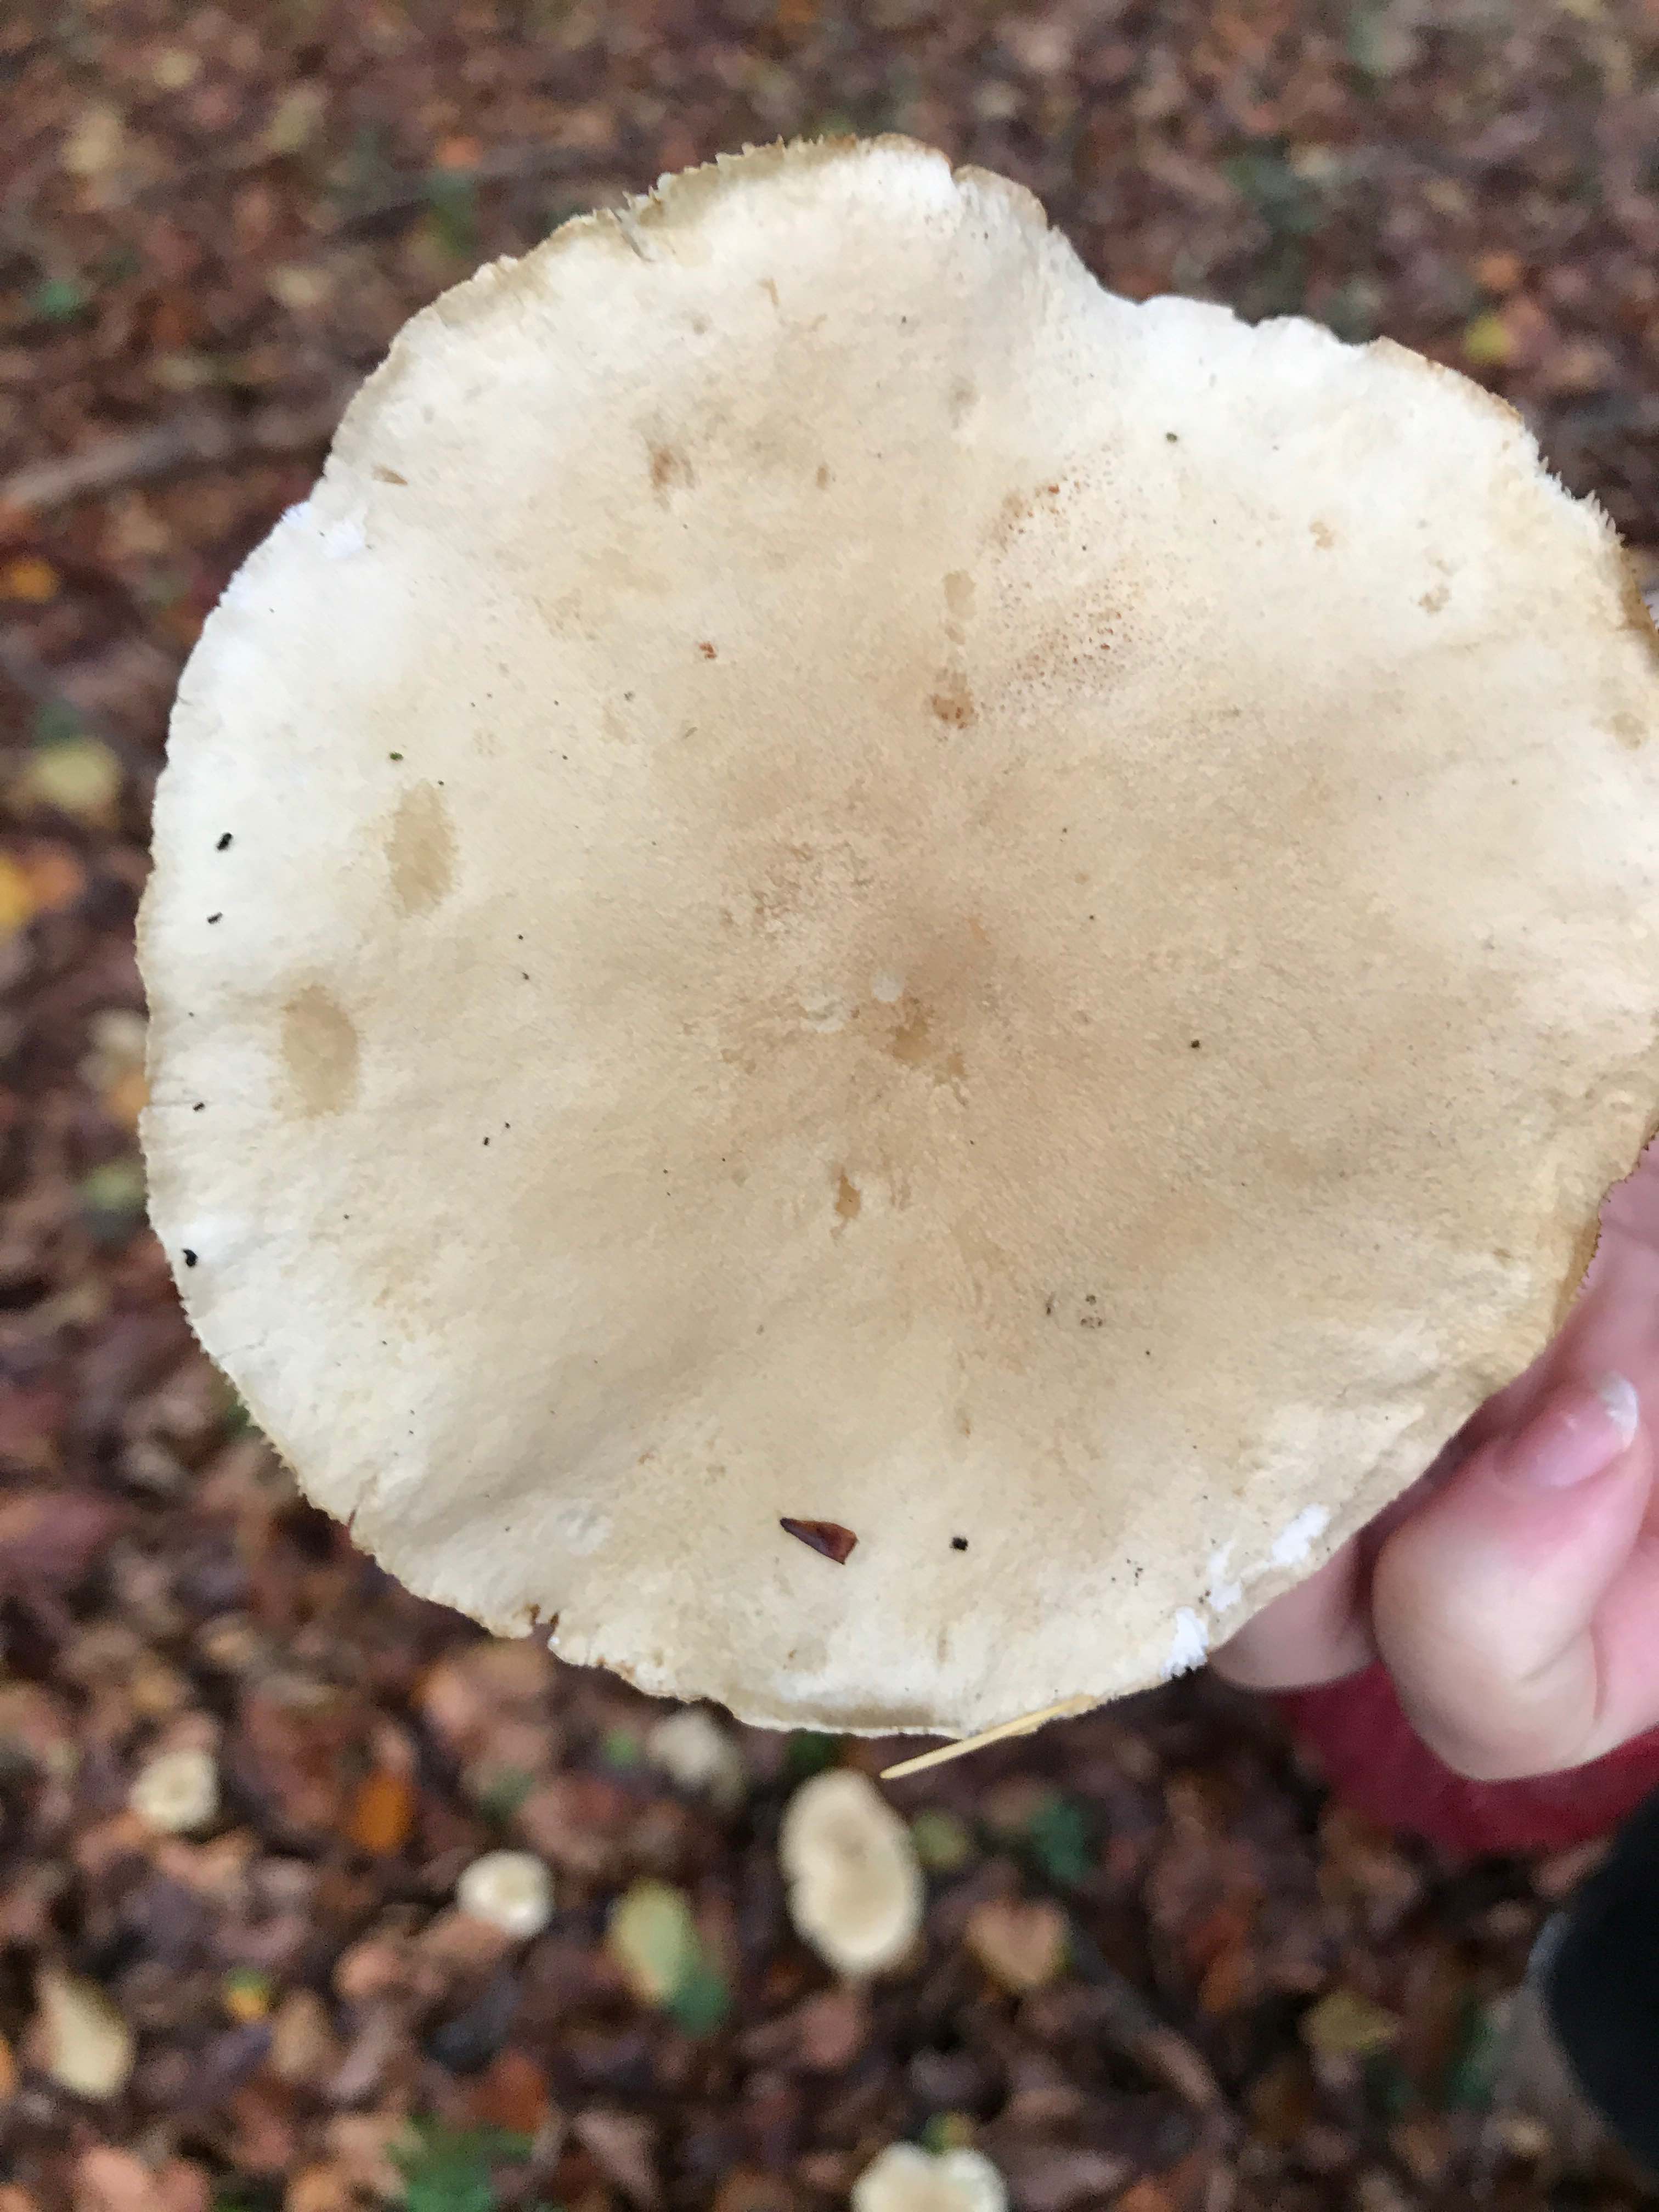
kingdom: Fungi
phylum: Basidiomycota
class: Agaricomycetes
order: Agaricales
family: Tricholomataceae
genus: Tricholoma
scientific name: Tricholoma lascivum
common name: stinkende ridderhat
